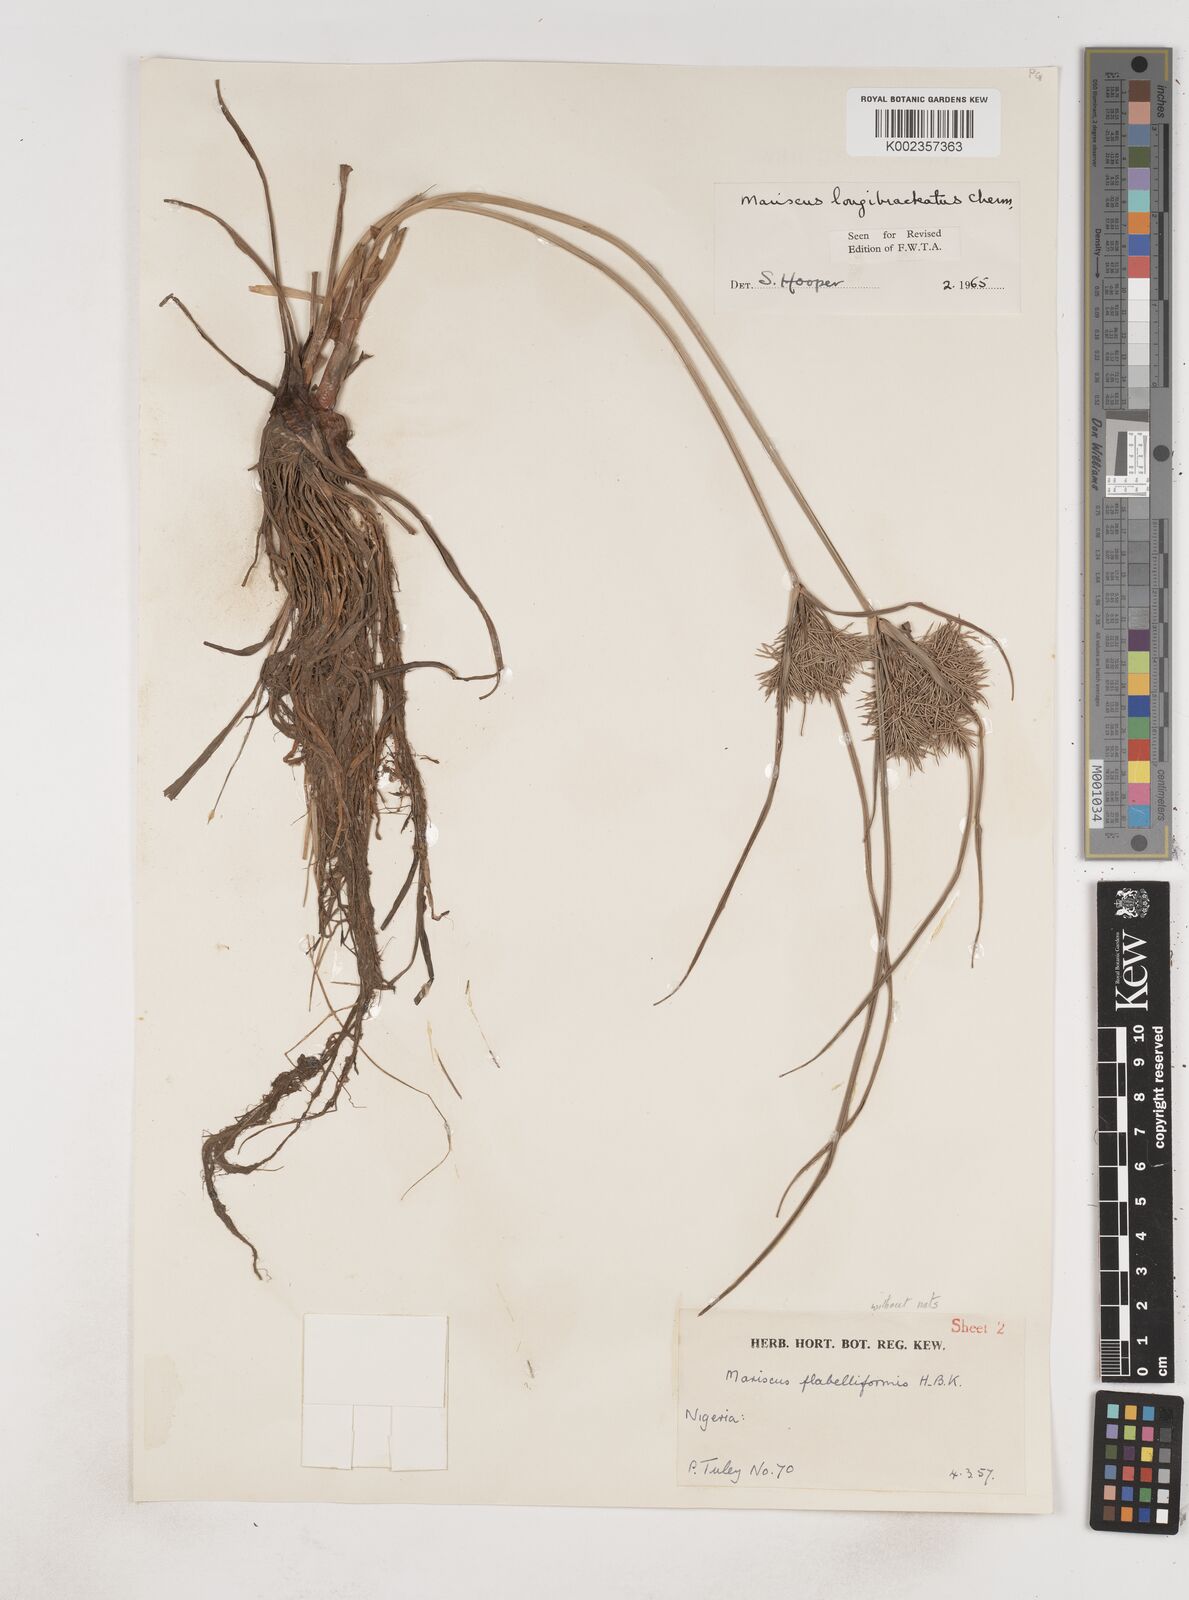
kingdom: Plantae
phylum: Tracheophyta
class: Liliopsida
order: Poales
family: Cyperaceae
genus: Cyperus
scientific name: Cyperus distans
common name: Slender cyperus
